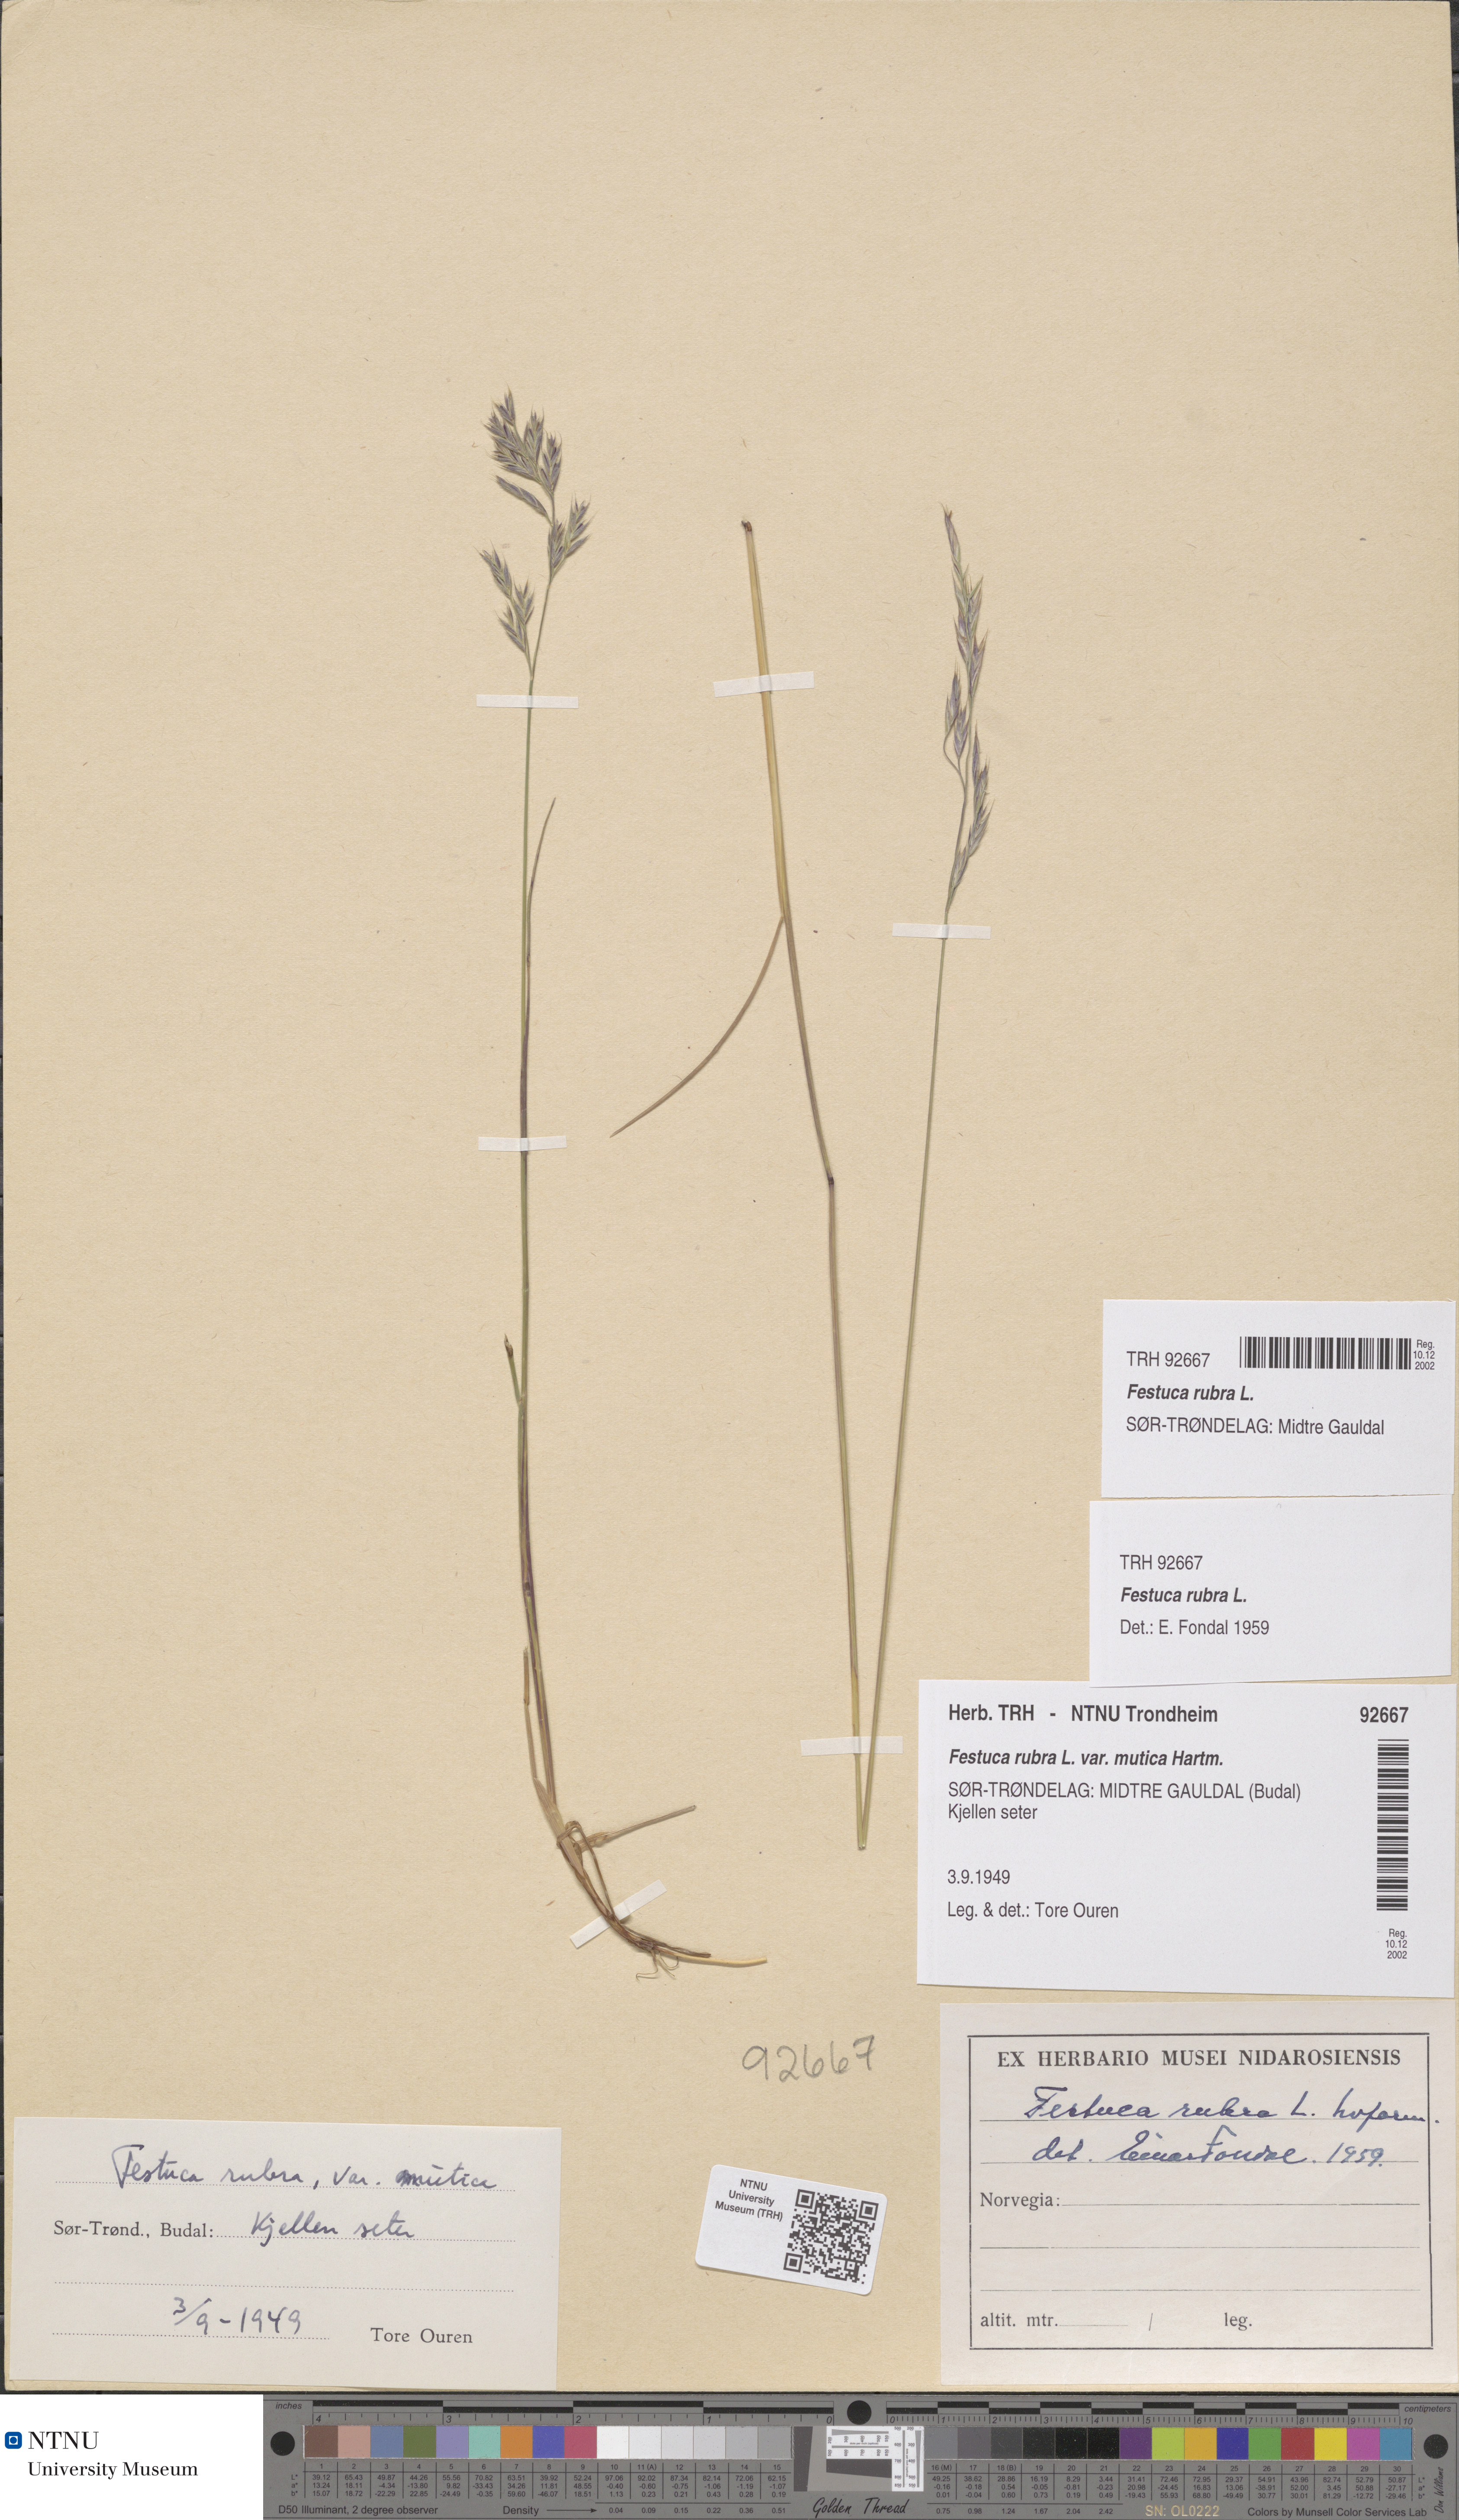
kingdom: Plantae
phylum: Tracheophyta
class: Liliopsida
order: Poales
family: Poaceae
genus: Festuca
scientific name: Festuca rubra
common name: Red fescue
